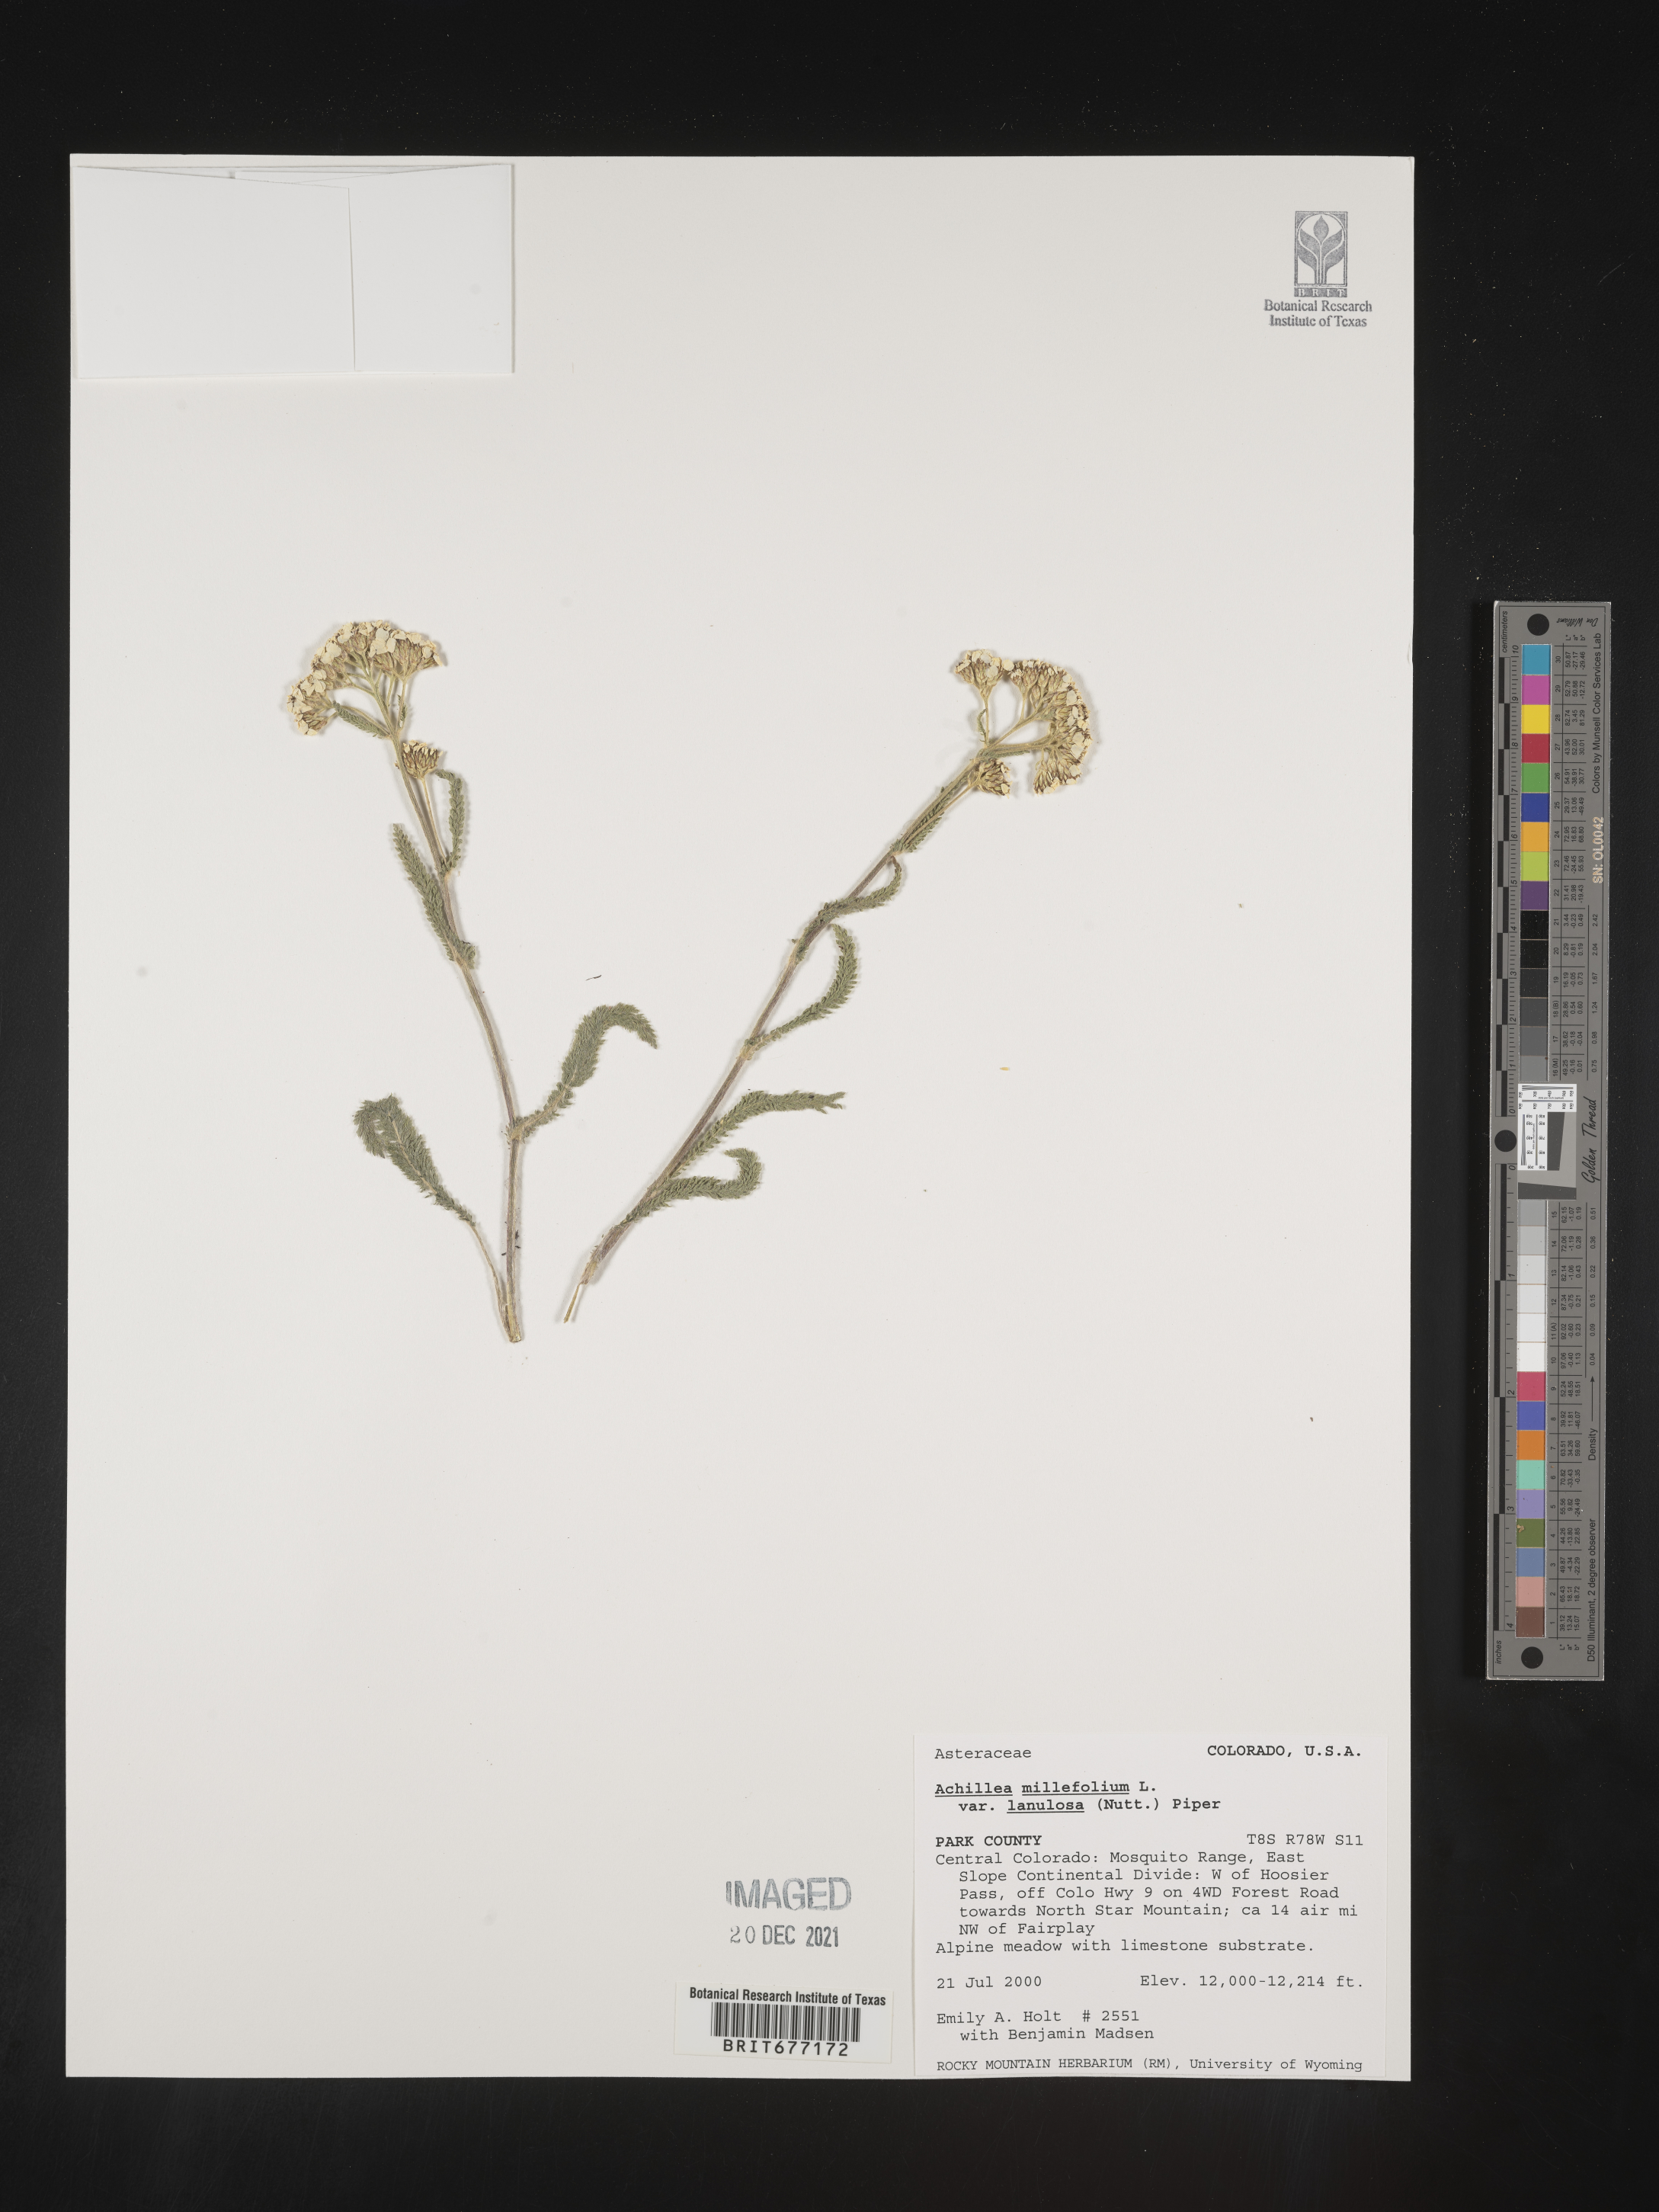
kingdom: Plantae
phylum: Tracheophyta
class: Magnoliopsida
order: Asterales
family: Asteraceae
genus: Achillea
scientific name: Achillea millefolium
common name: Yarrow
